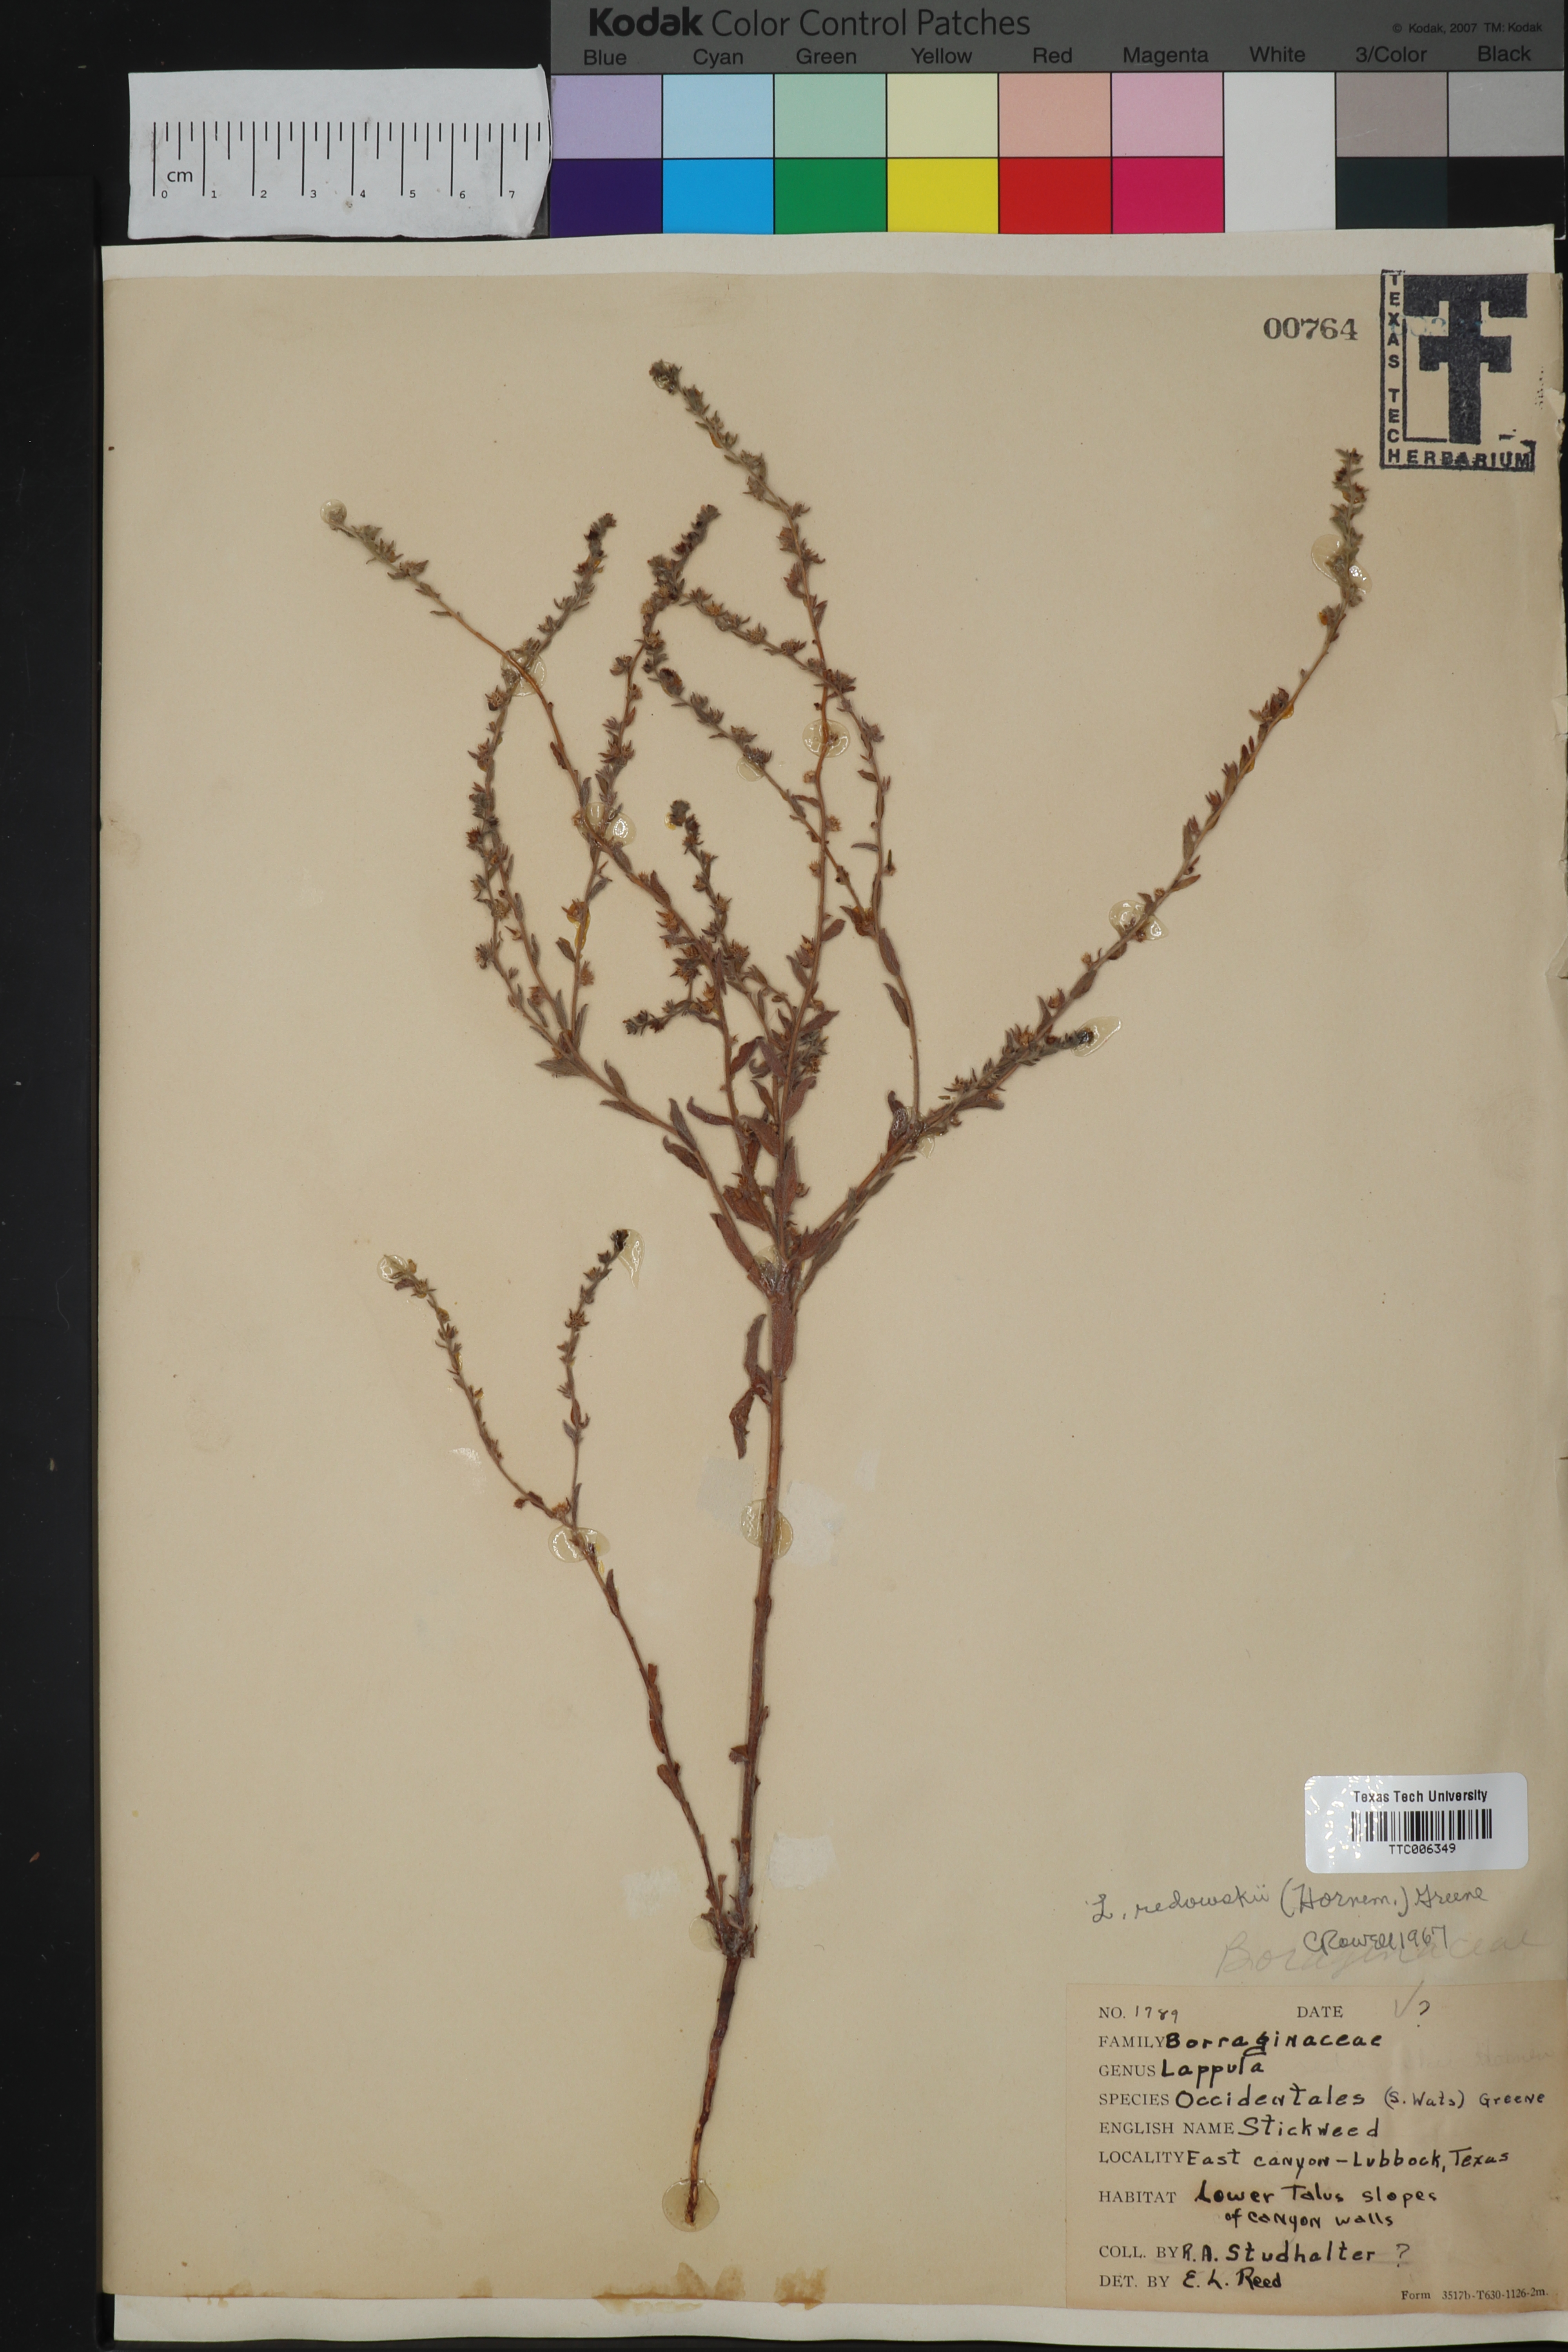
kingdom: Plantae
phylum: Tracheophyta
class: Magnoliopsida
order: Boraginales
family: Boraginaceae
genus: Lappula
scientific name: Lappula redowskii
